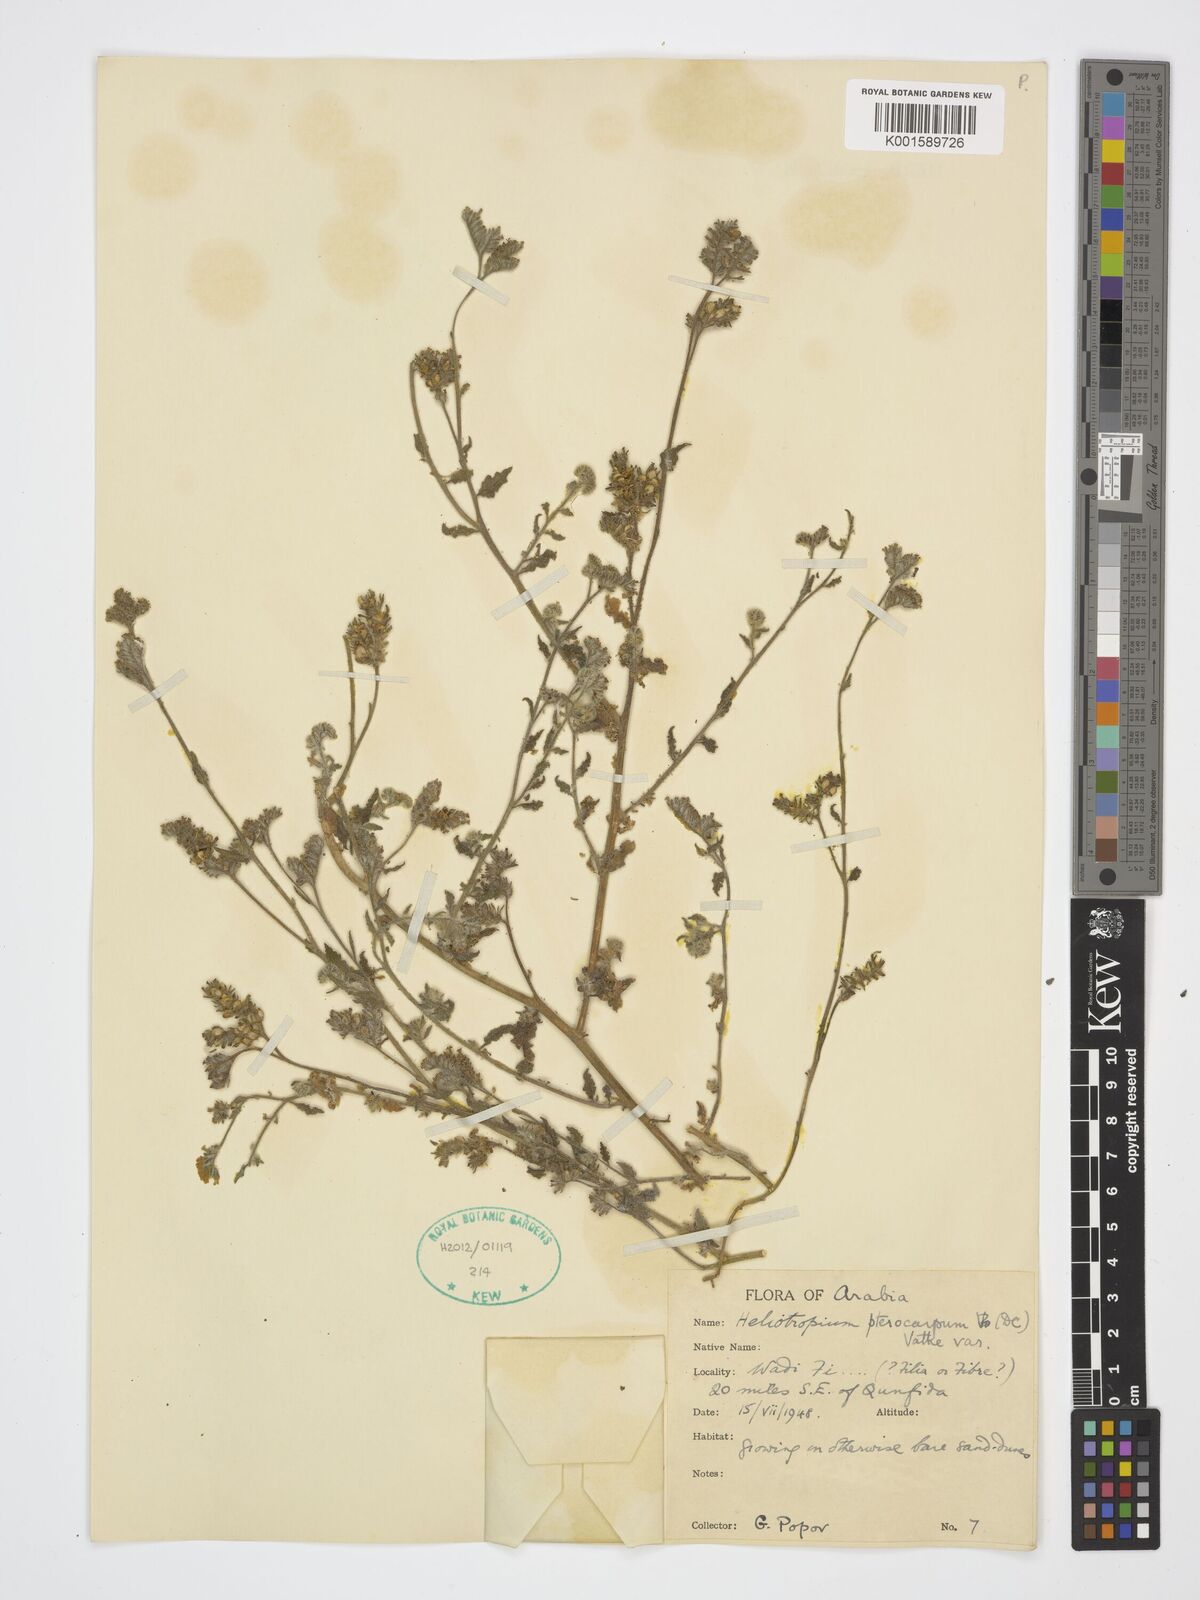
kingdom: Plantae
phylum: Tracheophyta
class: Magnoliopsida
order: Boraginales
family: Heliotropiaceae
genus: Heliotropium
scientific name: Heliotropium pterocarpum
